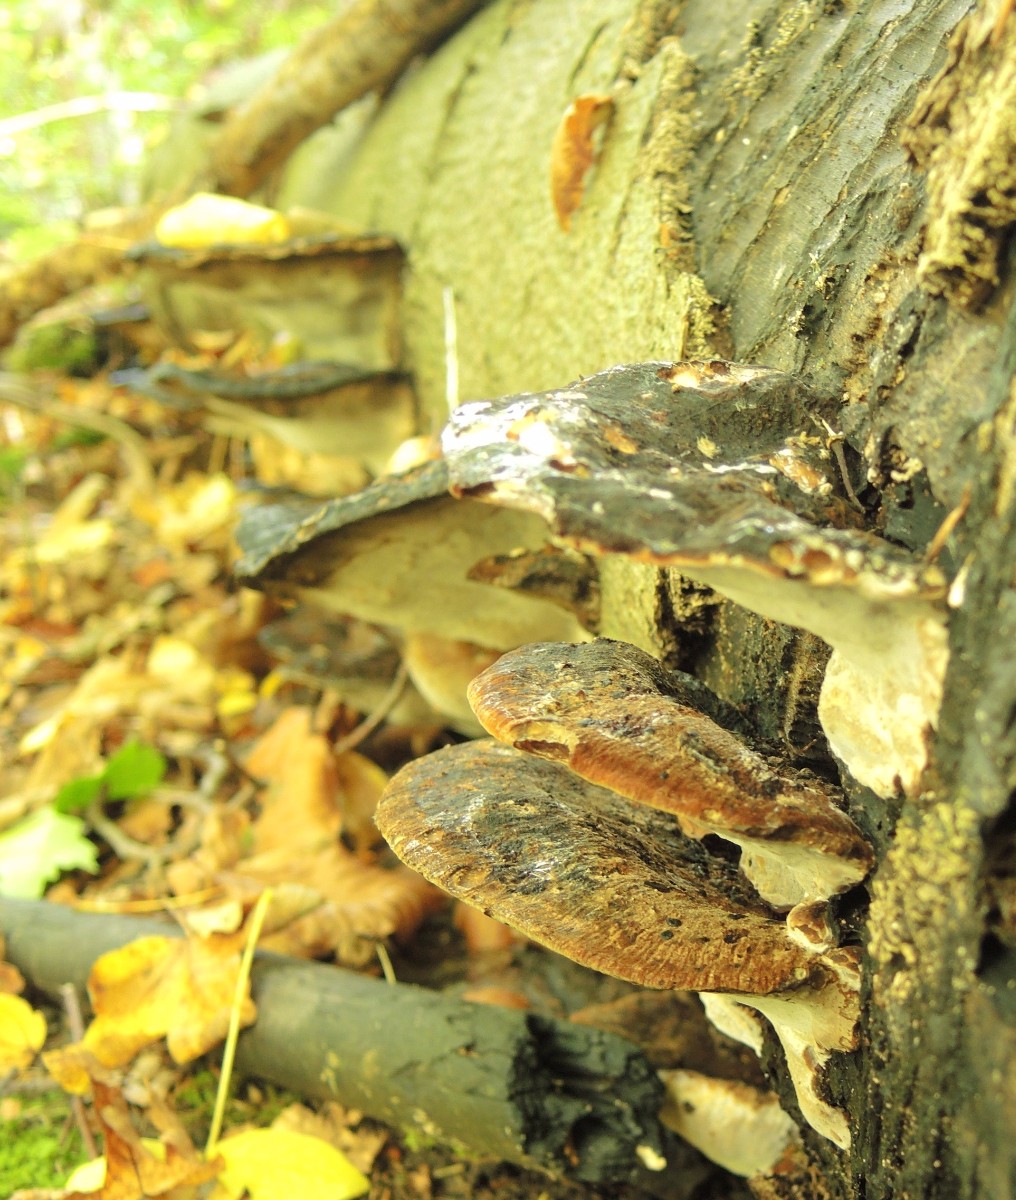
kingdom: Fungi
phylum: Basidiomycota
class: Agaricomycetes
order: Polyporales
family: Ischnodermataceae
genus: Ischnoderma
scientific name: Ischnoderma resinosum
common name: løv-tjæreporesvamp
